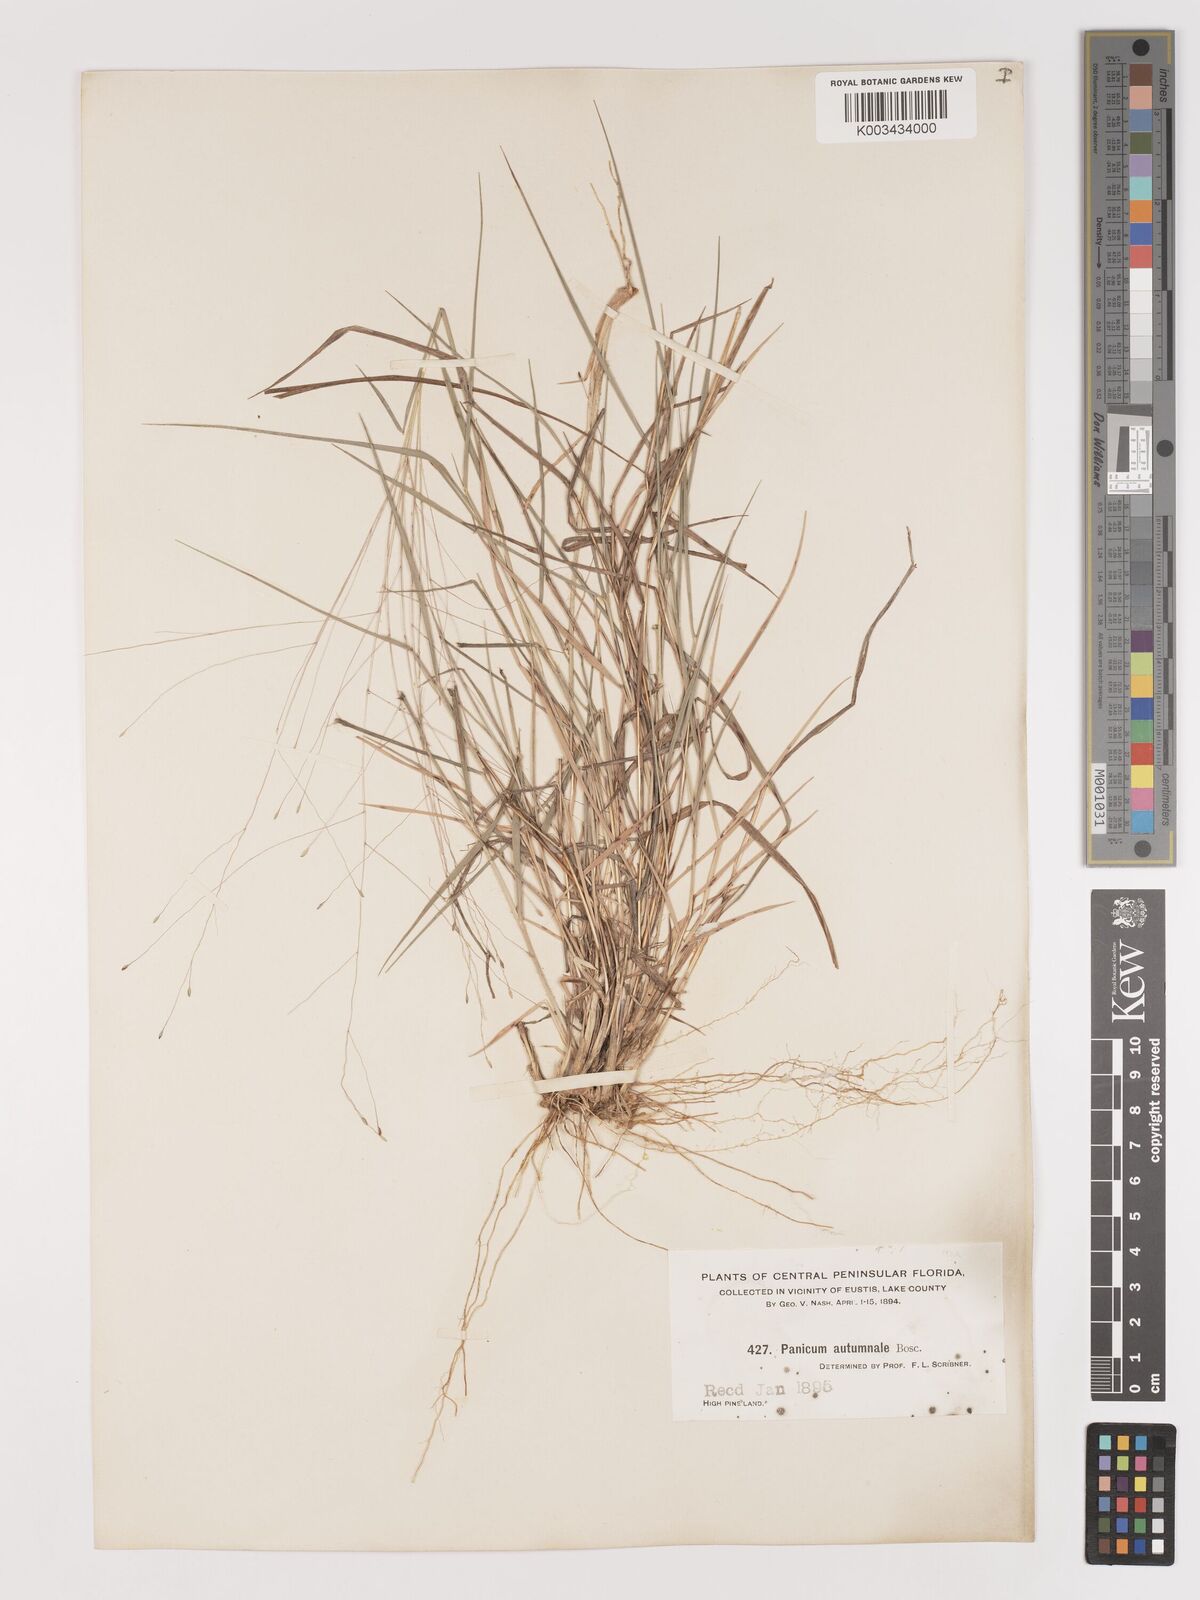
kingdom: Plantae
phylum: Tracheophyta
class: Liliopsida
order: Poales
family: Poaceae
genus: Digitaria
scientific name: Digitaria
